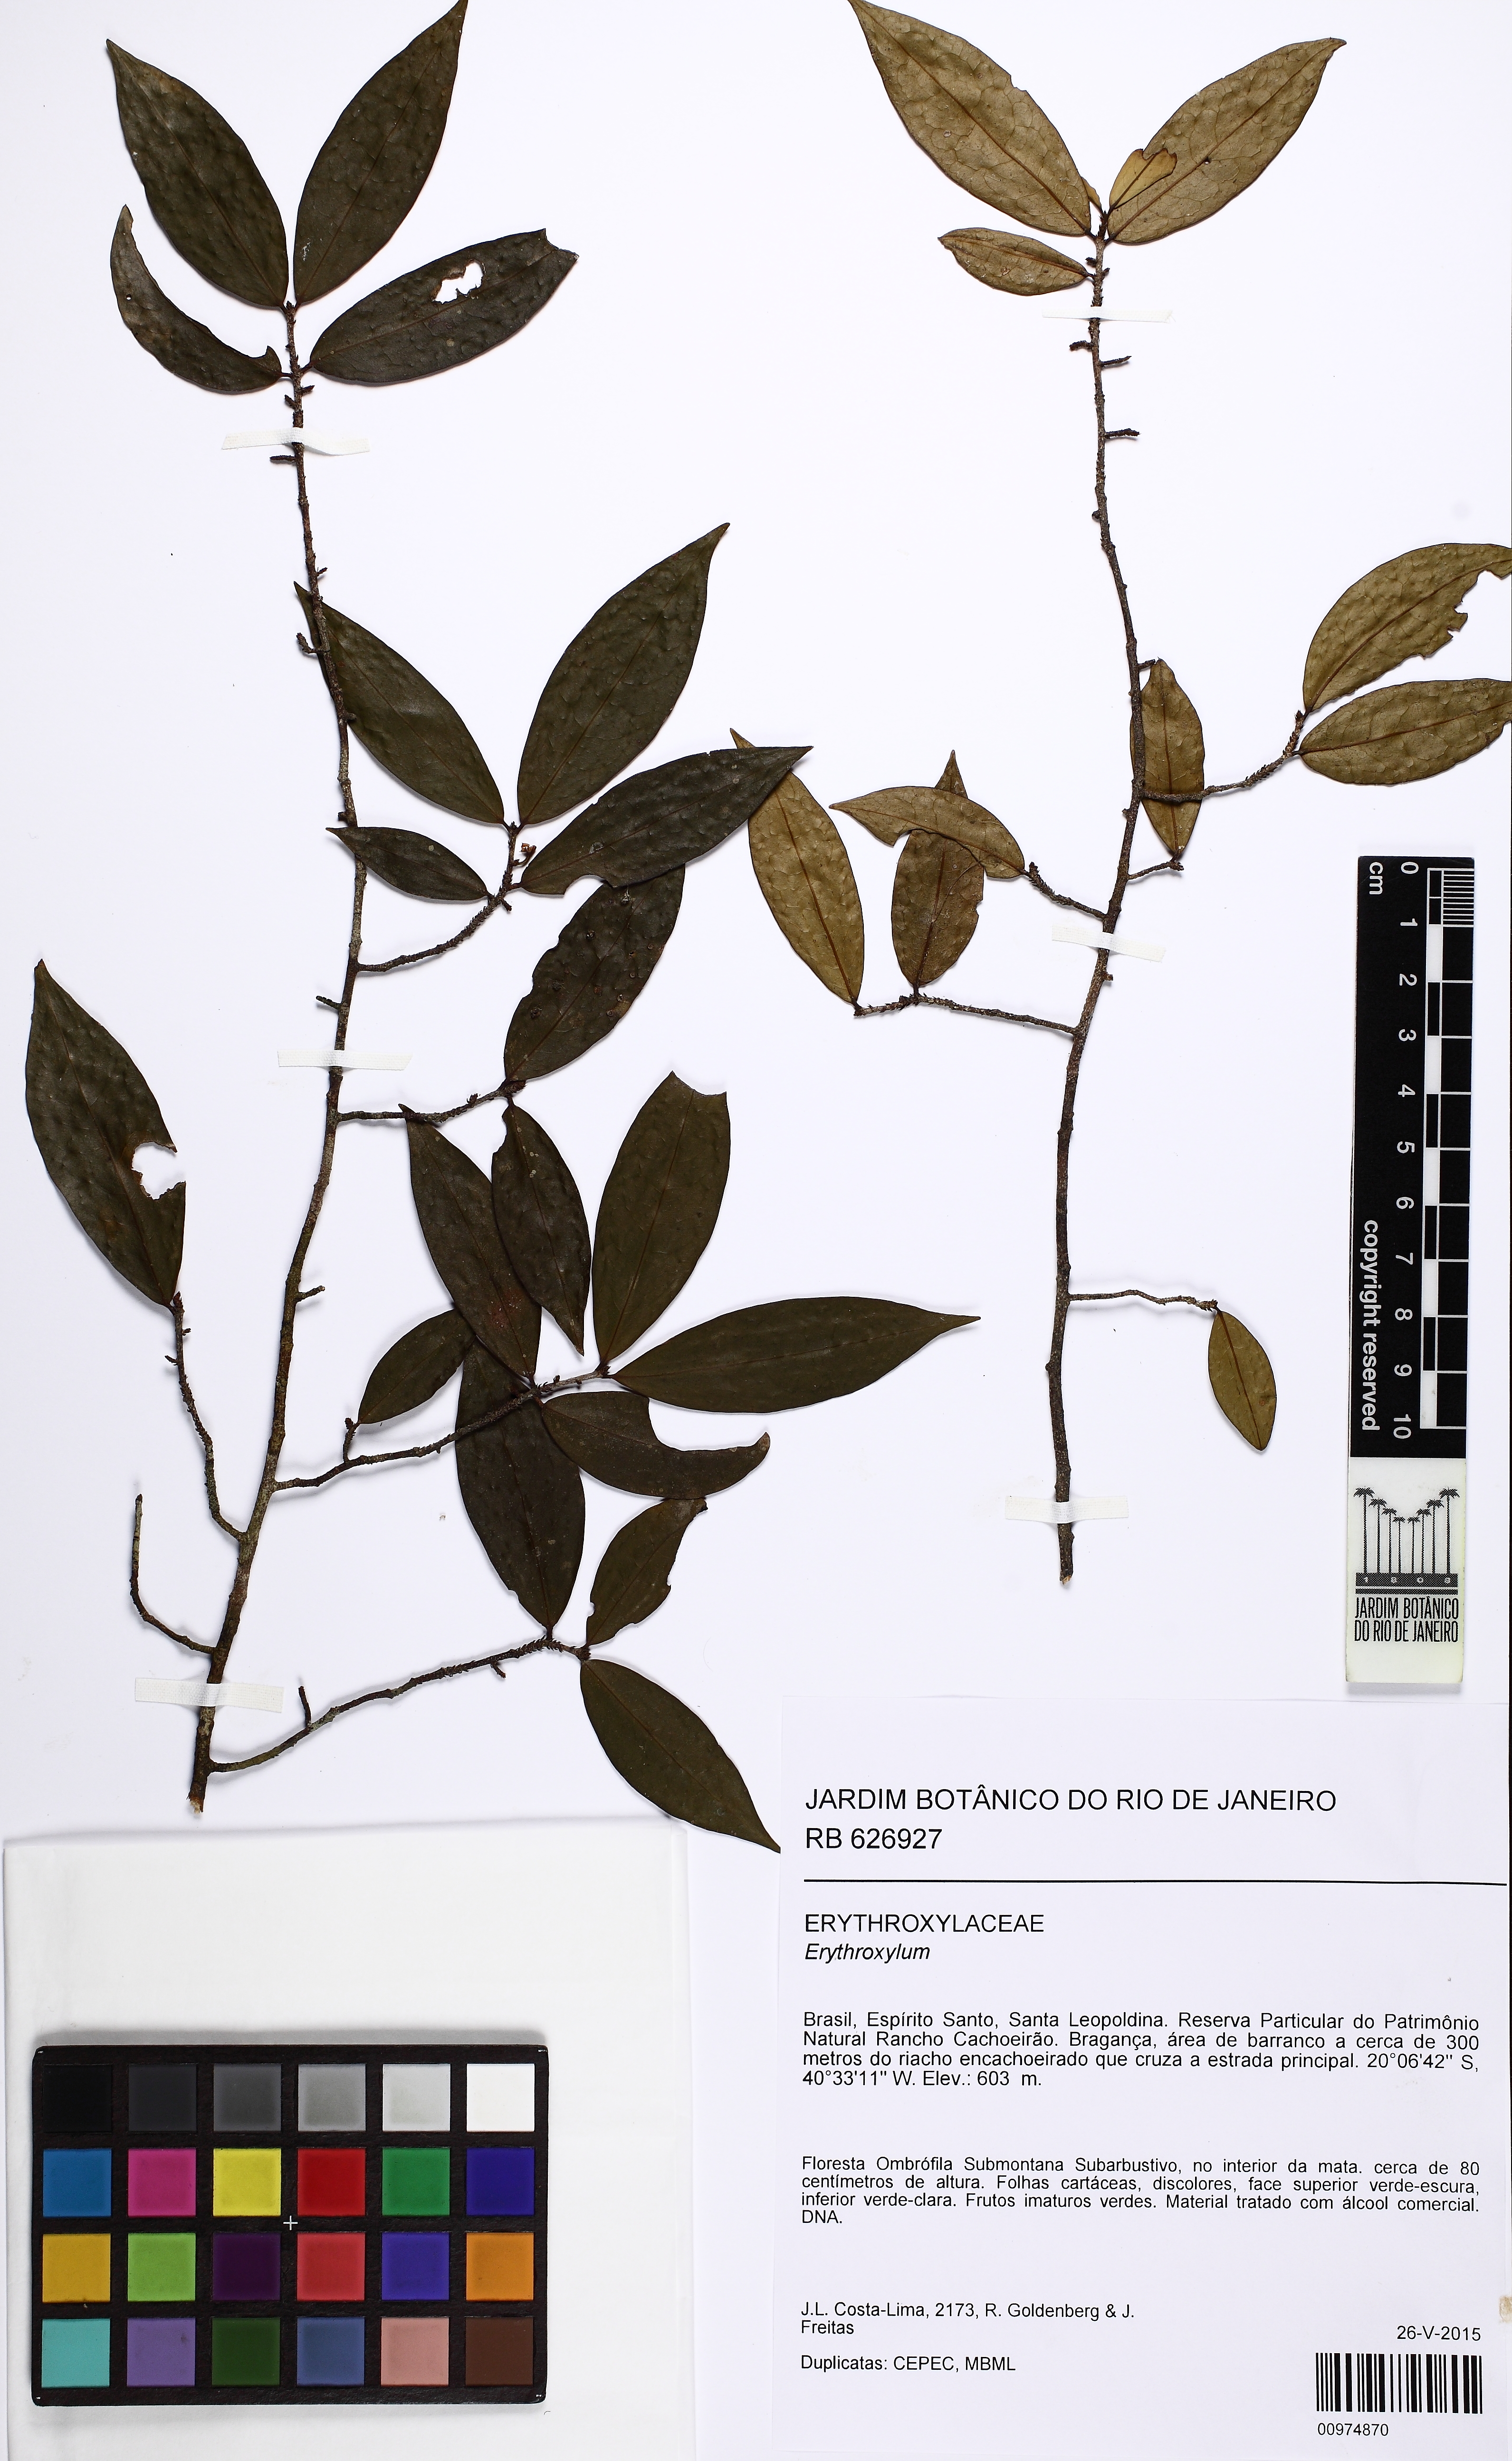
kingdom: Plantae
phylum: Tracheophyta
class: Magnoliopsida
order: Malpighiales
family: Erythroxylaceae
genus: Erythroxylum
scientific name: Erythroxylum
